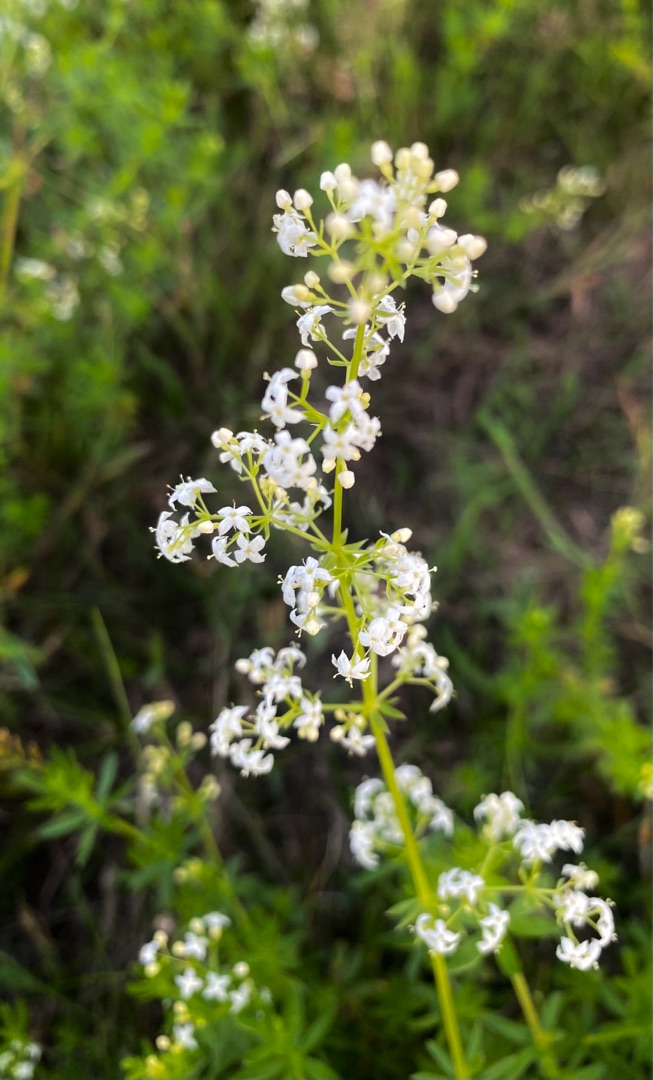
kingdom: Plantae
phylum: Tracheophyta
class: Magnoliopsida
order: Gentianales
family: Rubiaceae
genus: Galium
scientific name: Galium mollugo
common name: Hvid snerre
